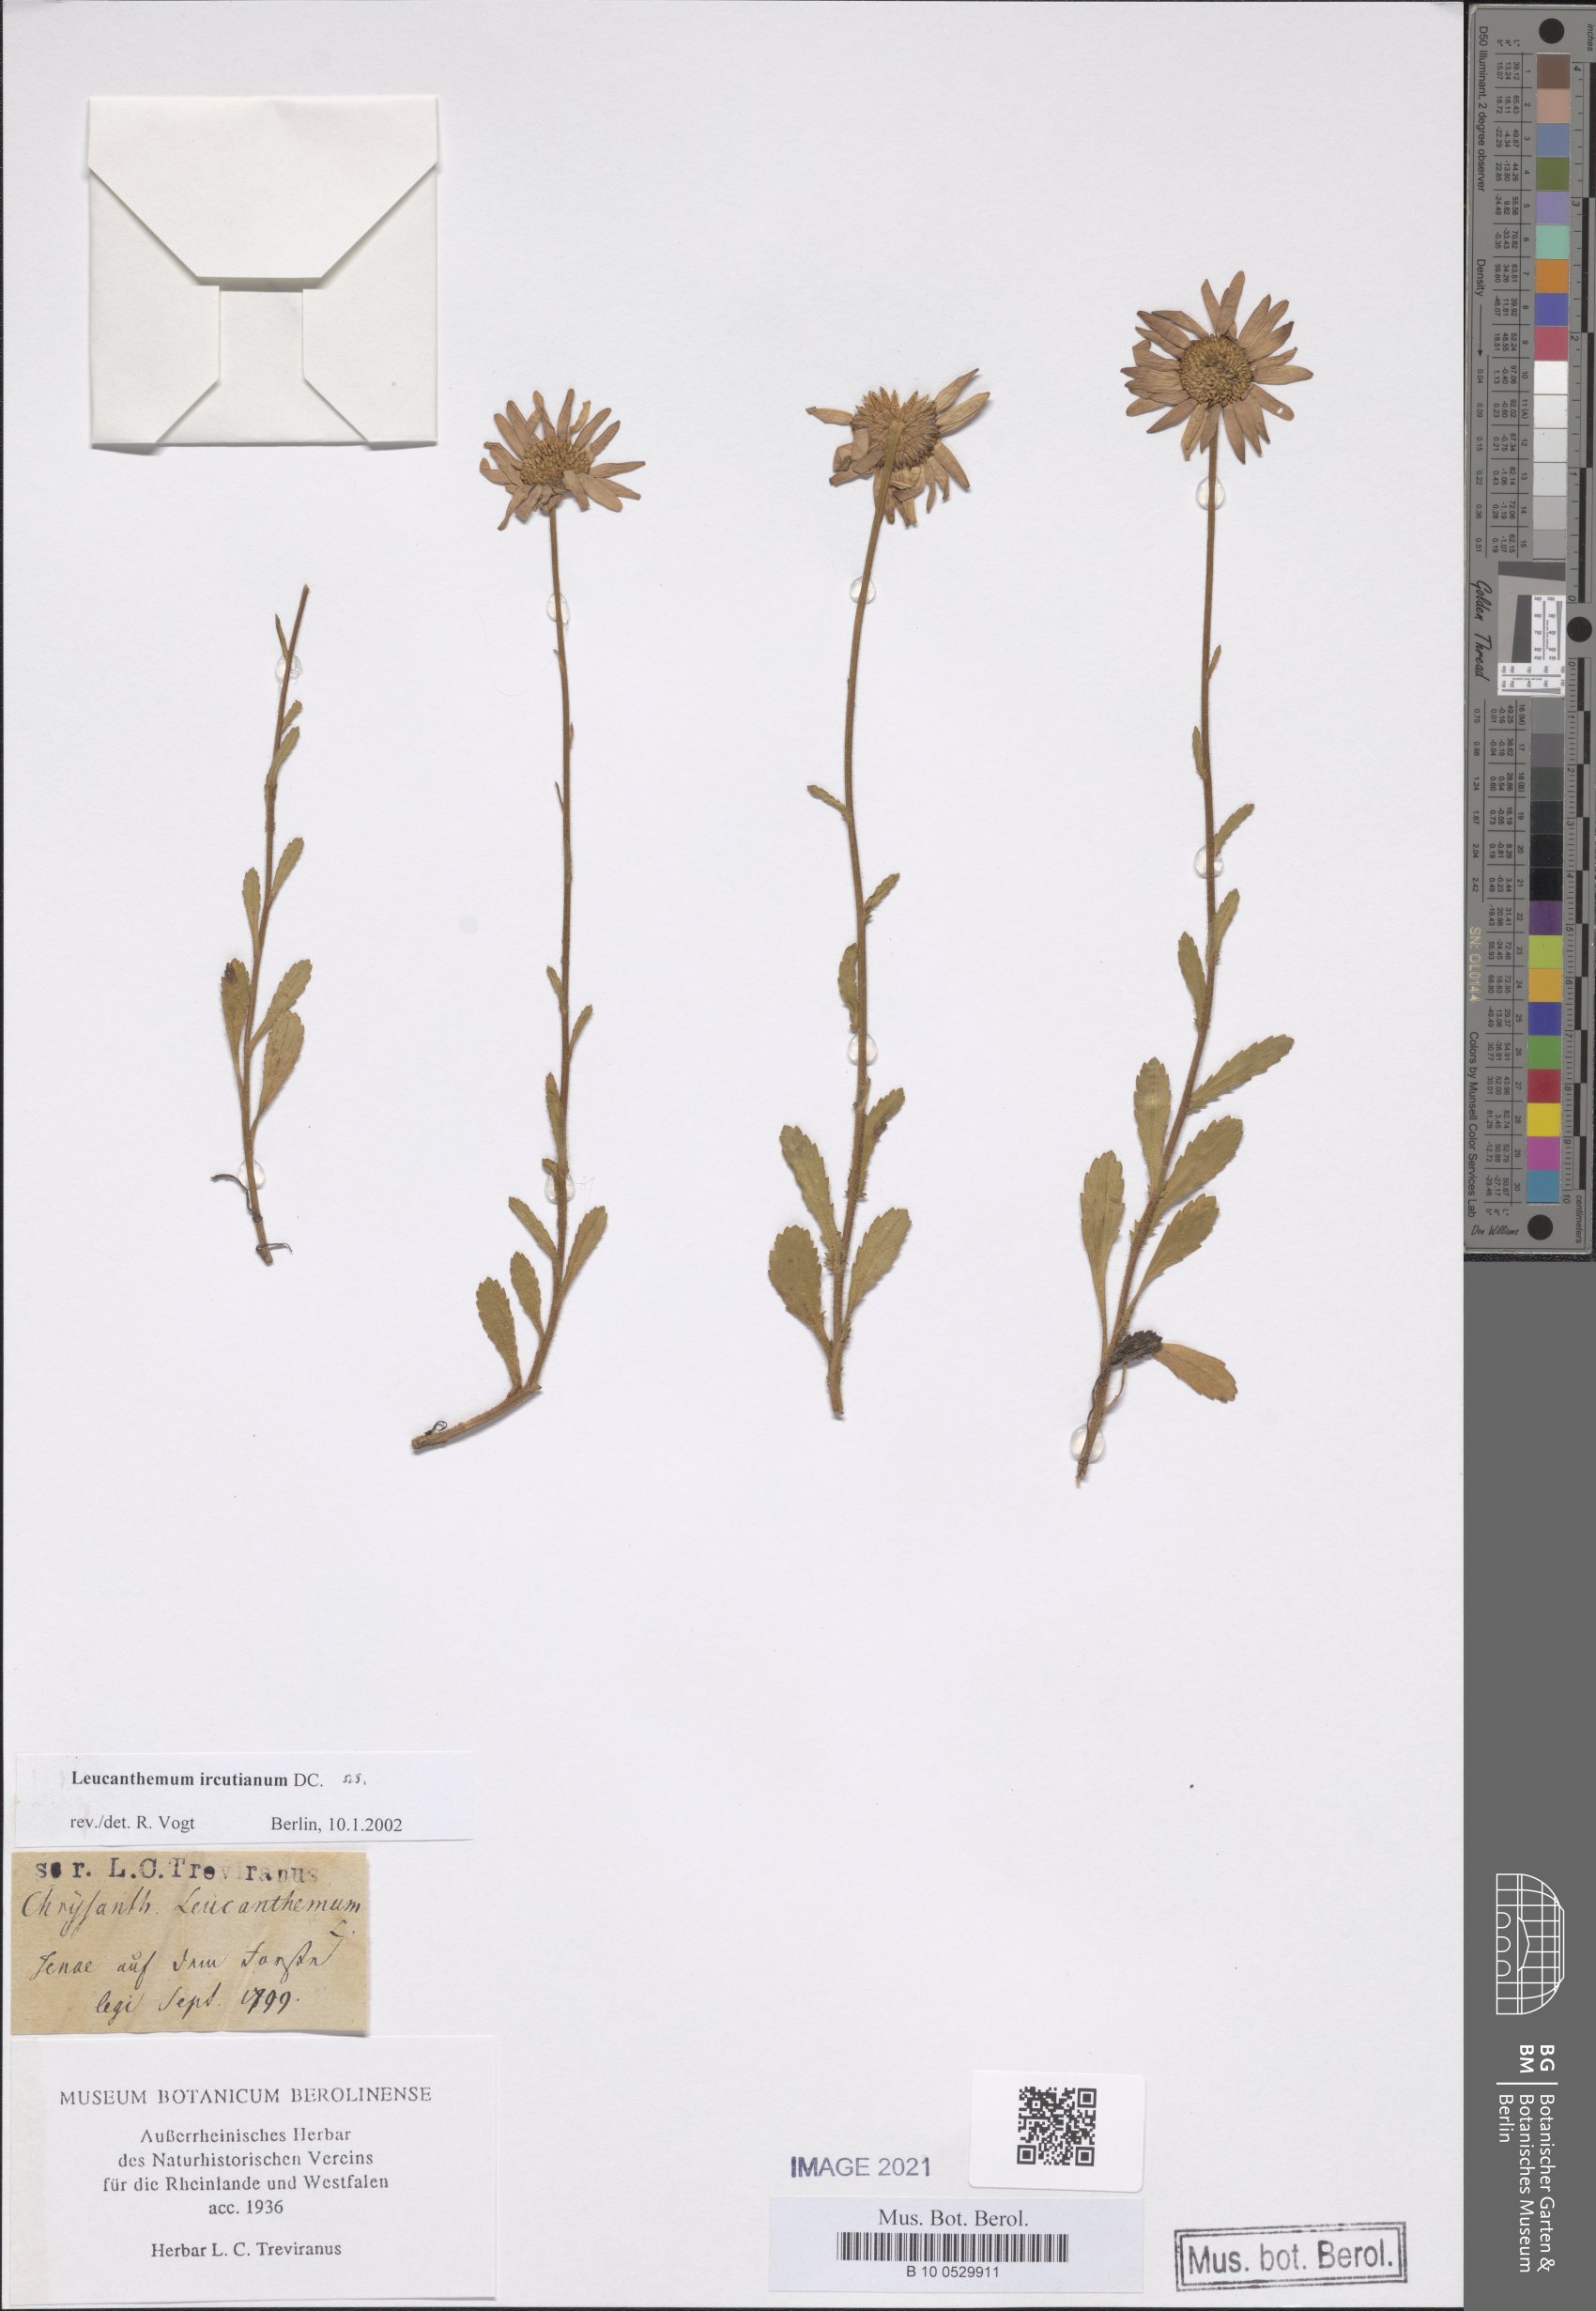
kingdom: Plantae
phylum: Tracheophyta
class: Magnoliopsida
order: Asterales
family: Asteraceae
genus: Leucanthemum
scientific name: Leucanthemum ircutianum
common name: Daisy
